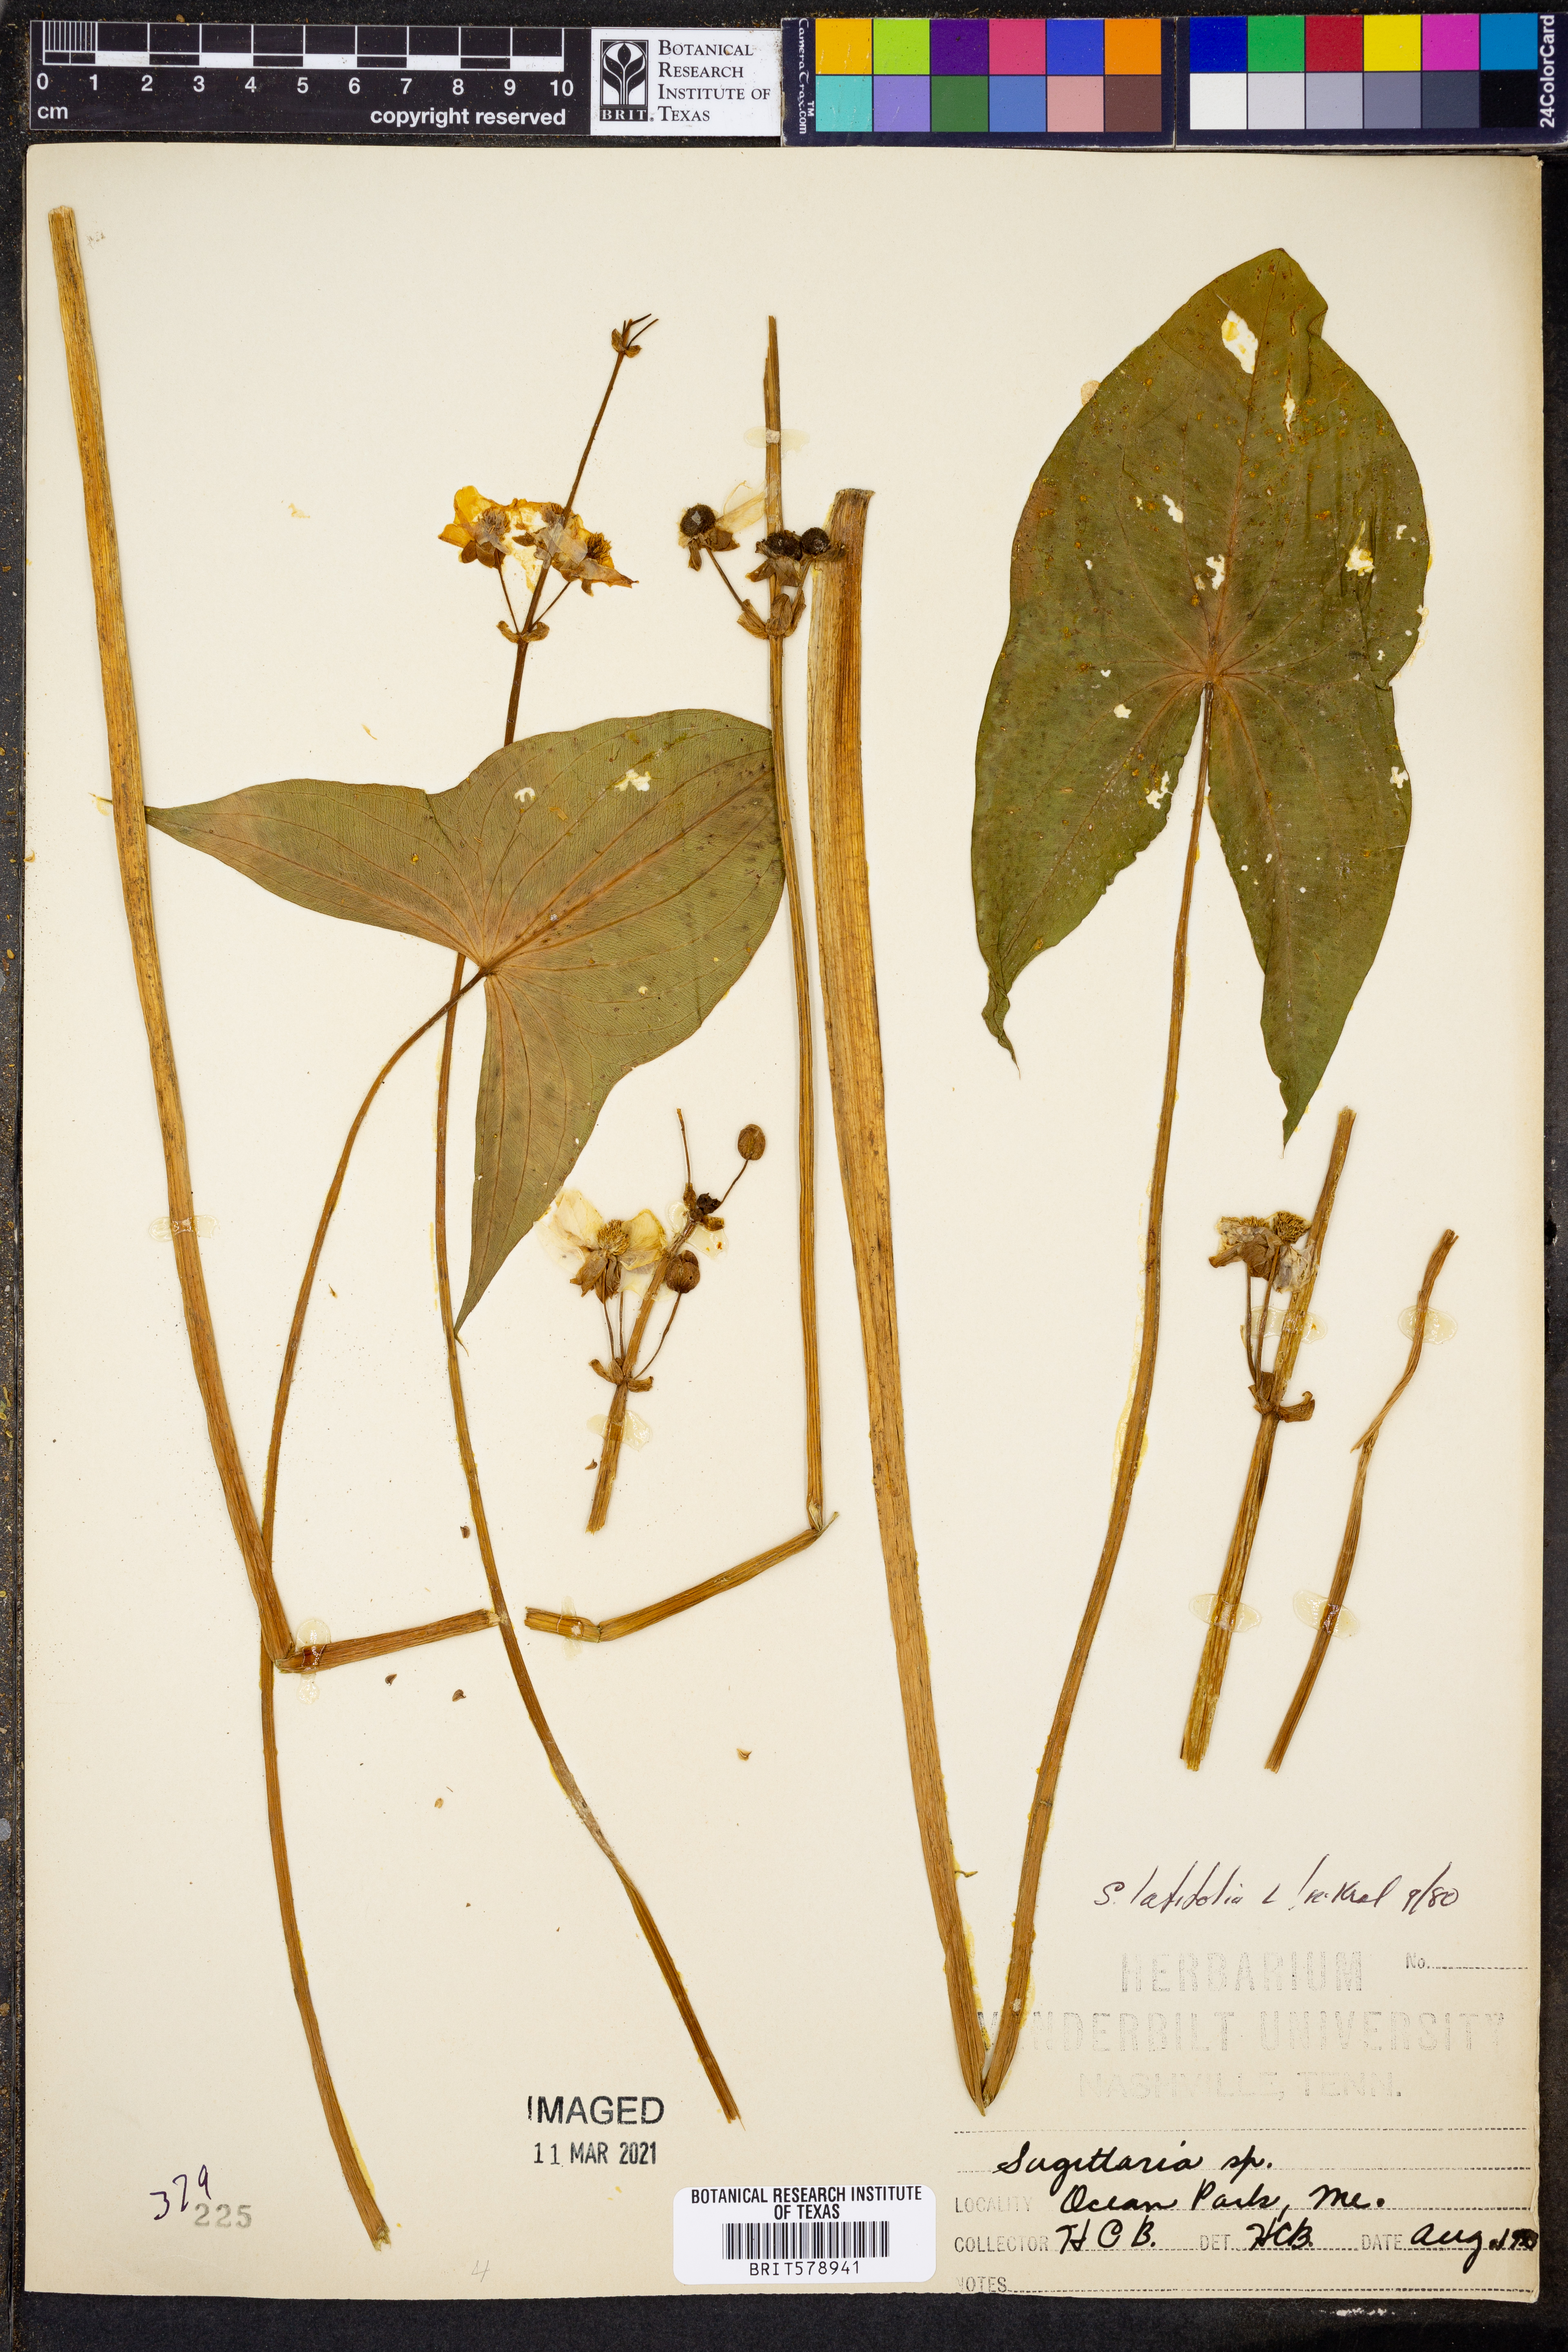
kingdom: Plantae
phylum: Tracheophyta
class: Liliopsida
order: Alismatales
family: Alismataceae
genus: Sagittaria
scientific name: Sagittaria latifolia
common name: Duck-potato
